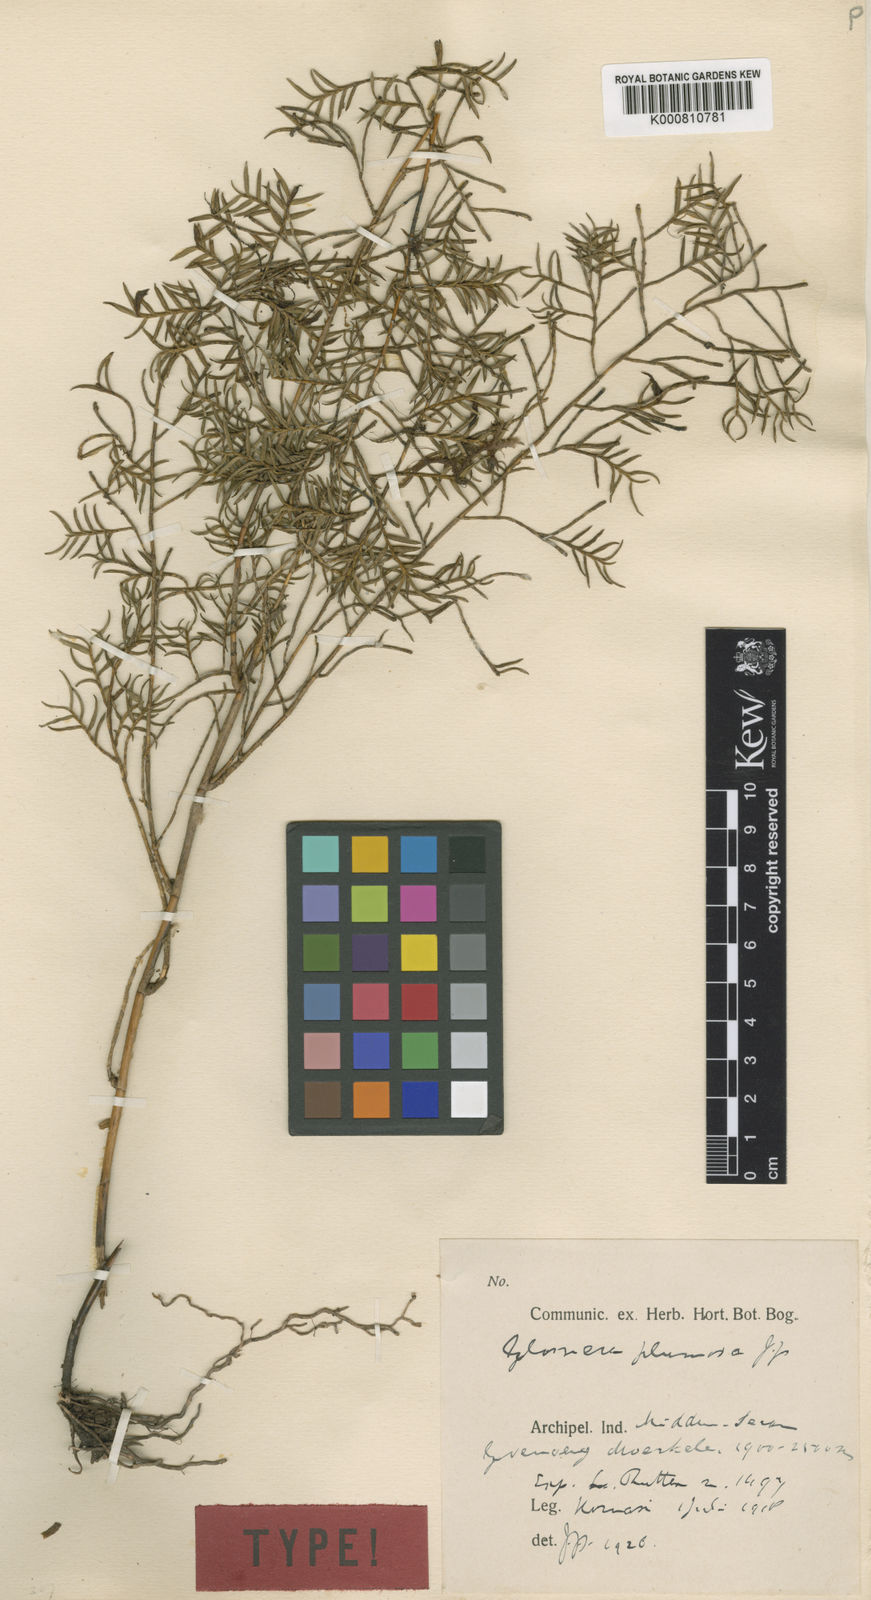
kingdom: Plantae
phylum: Tracheophyta
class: Liliopsida
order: Asparagales
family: Orchidaceae
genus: Glomera
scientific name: Glomera plumosa
